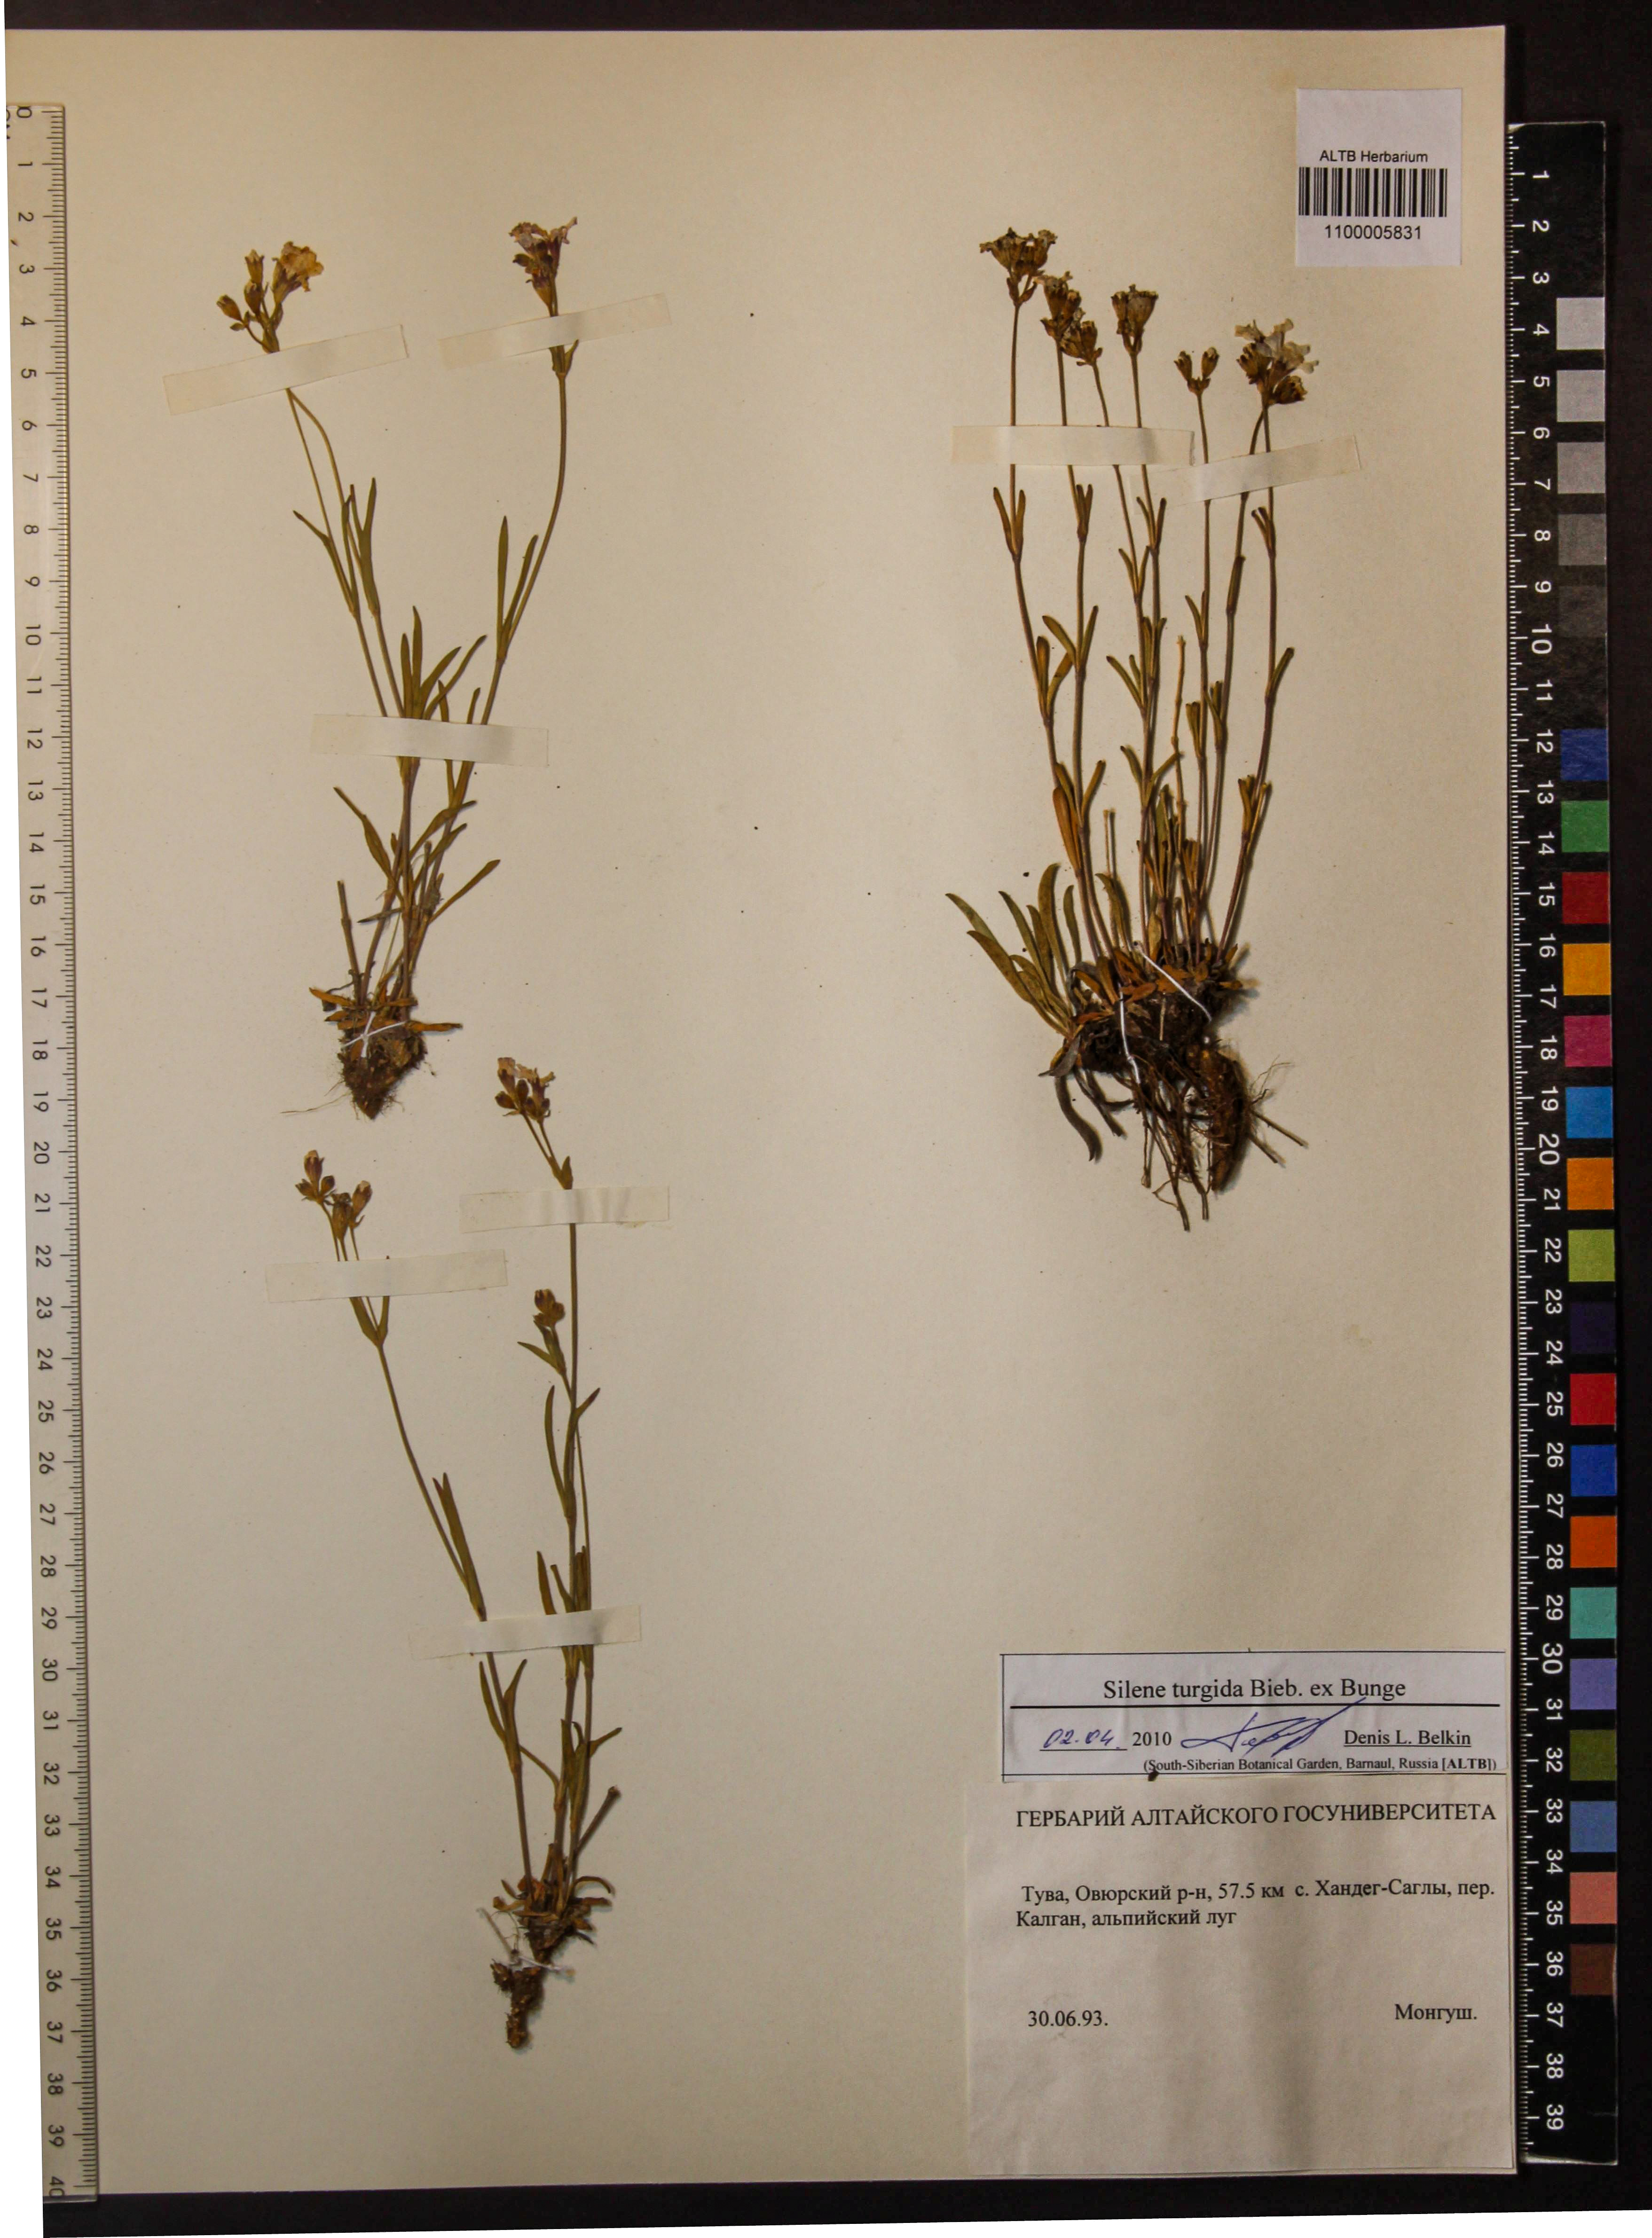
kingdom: Plantae
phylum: Tracheophyta
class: Magnoliopsida
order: Caryophyllales
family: Caryophyllaceae
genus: Silene
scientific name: Silene turgida
